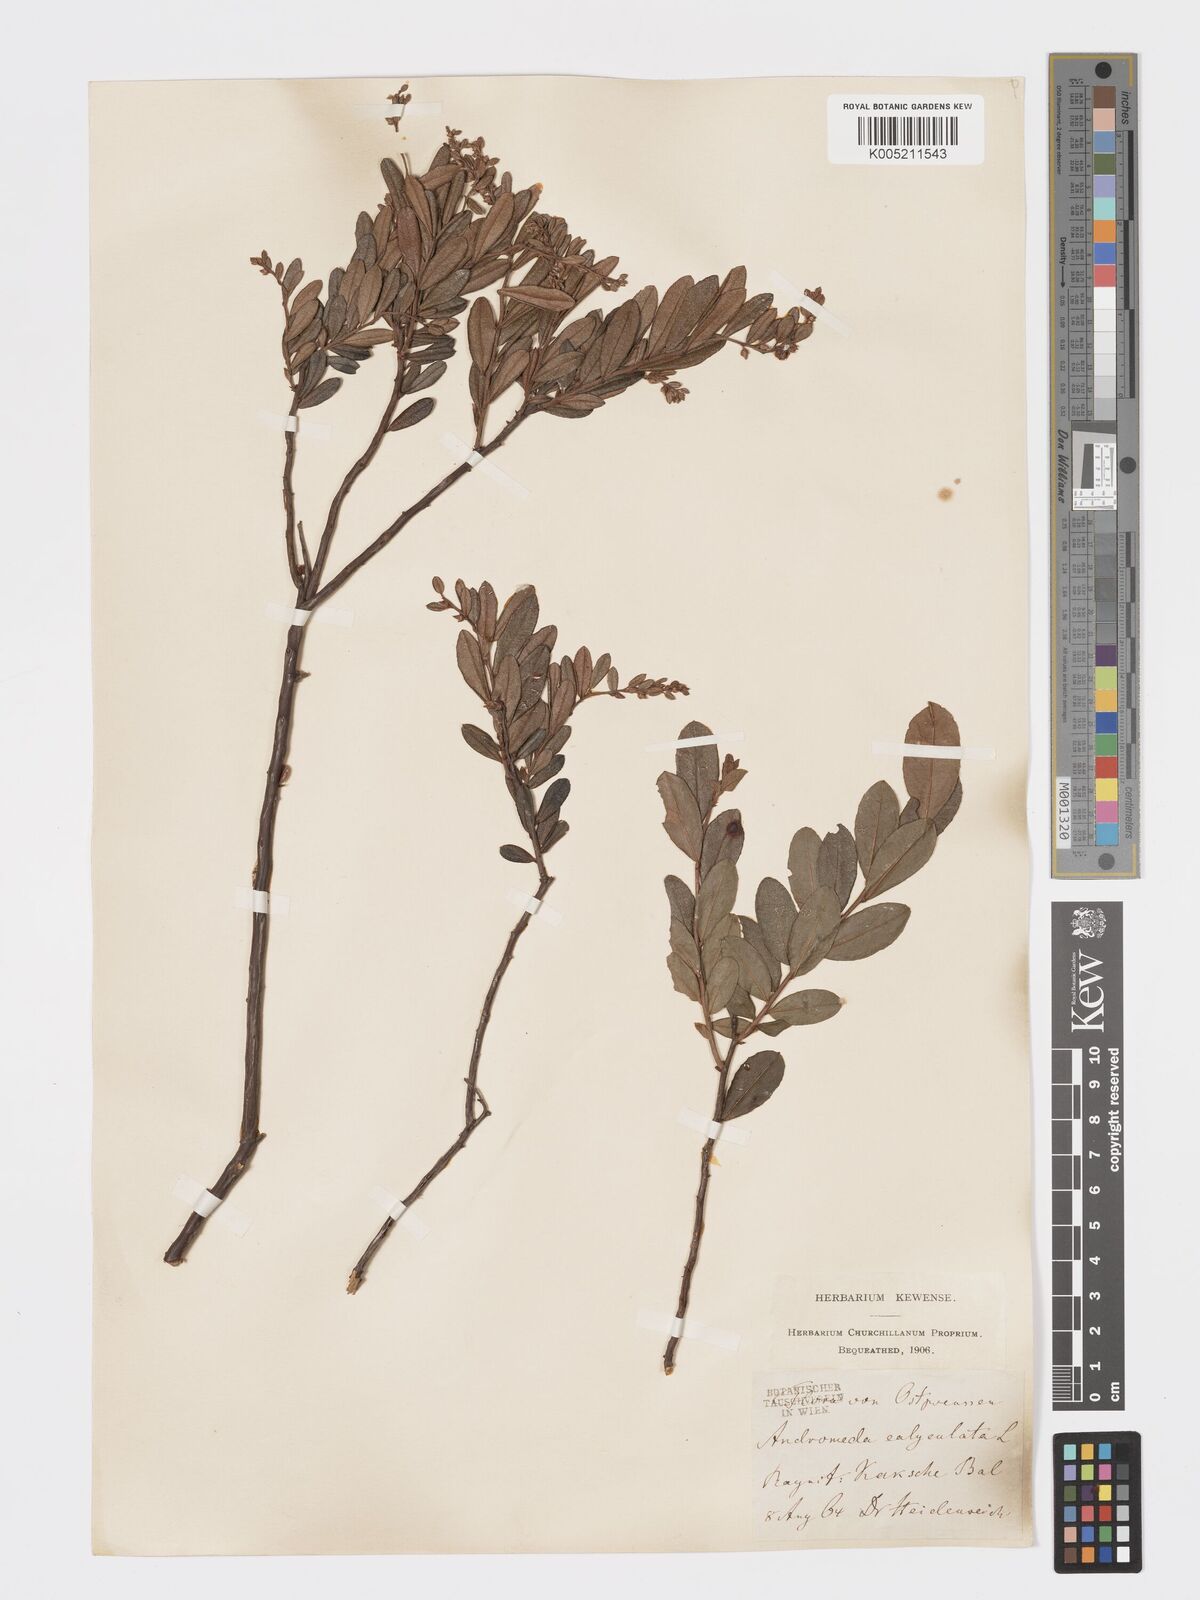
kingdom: Plantae
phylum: Tracheophyta
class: Magnoliopsida
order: Ericales
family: Ericaceae
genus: Chamaedaphne
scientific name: Chamaedaphne calyculata
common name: Leatherleaf
